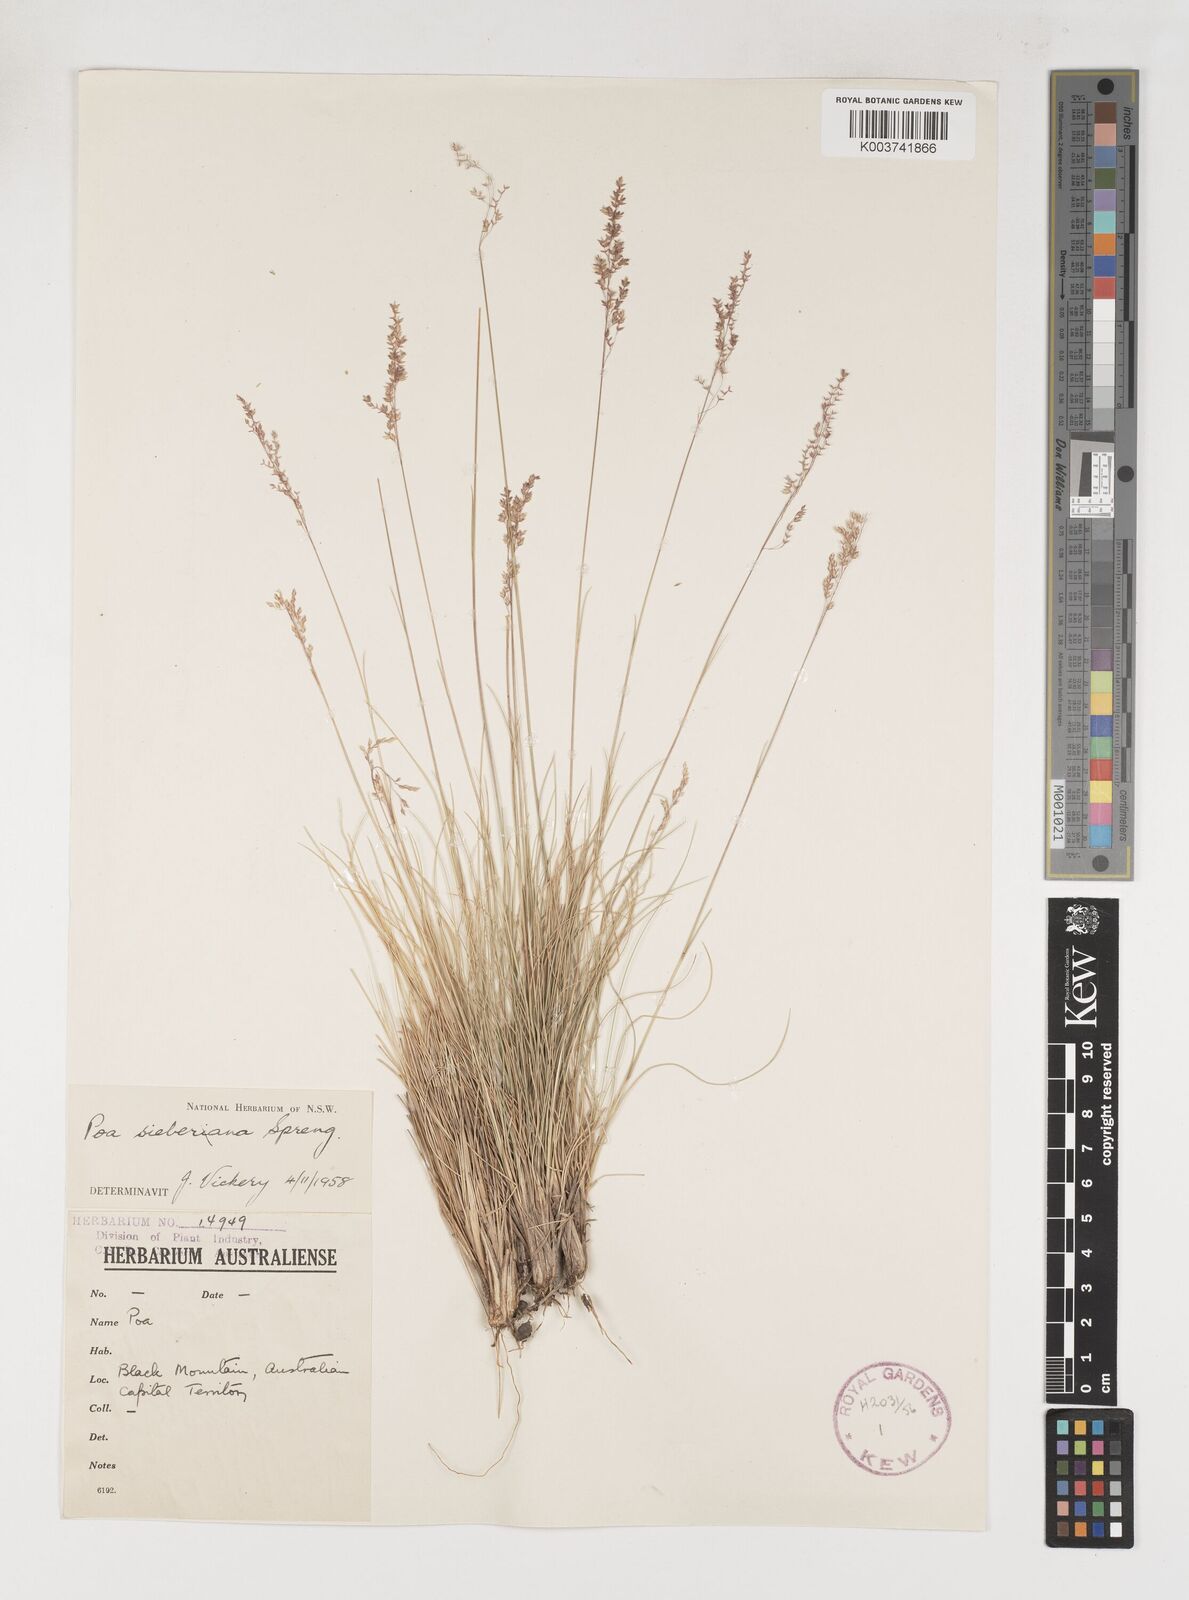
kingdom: Plantae
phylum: Tracheophyta
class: Liliopsida
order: Poales
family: Poaceae
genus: Poa
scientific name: Poa sieberiana
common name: Tussock poa
